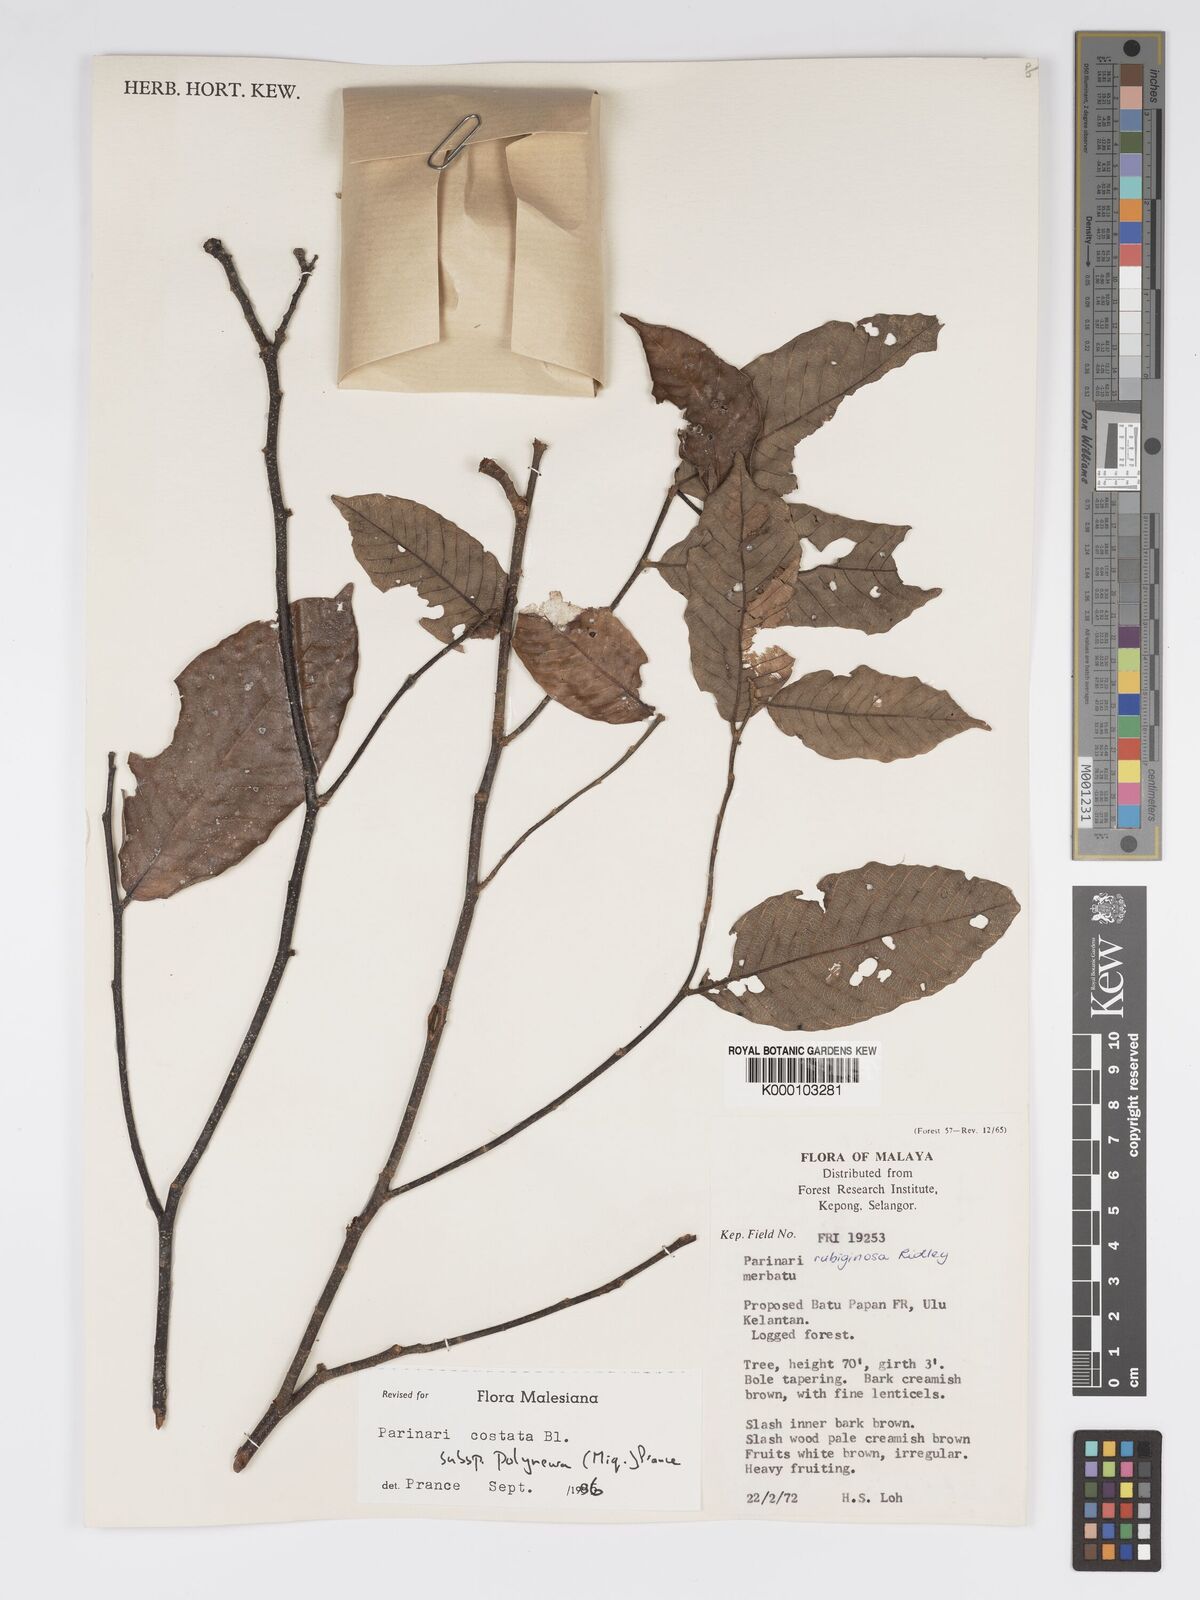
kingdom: Plantae
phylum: Tracheophyta
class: Magnoliopsida
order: Malpighiales
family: Chrysobalanaceae
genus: Parinari
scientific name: Parinari costata
